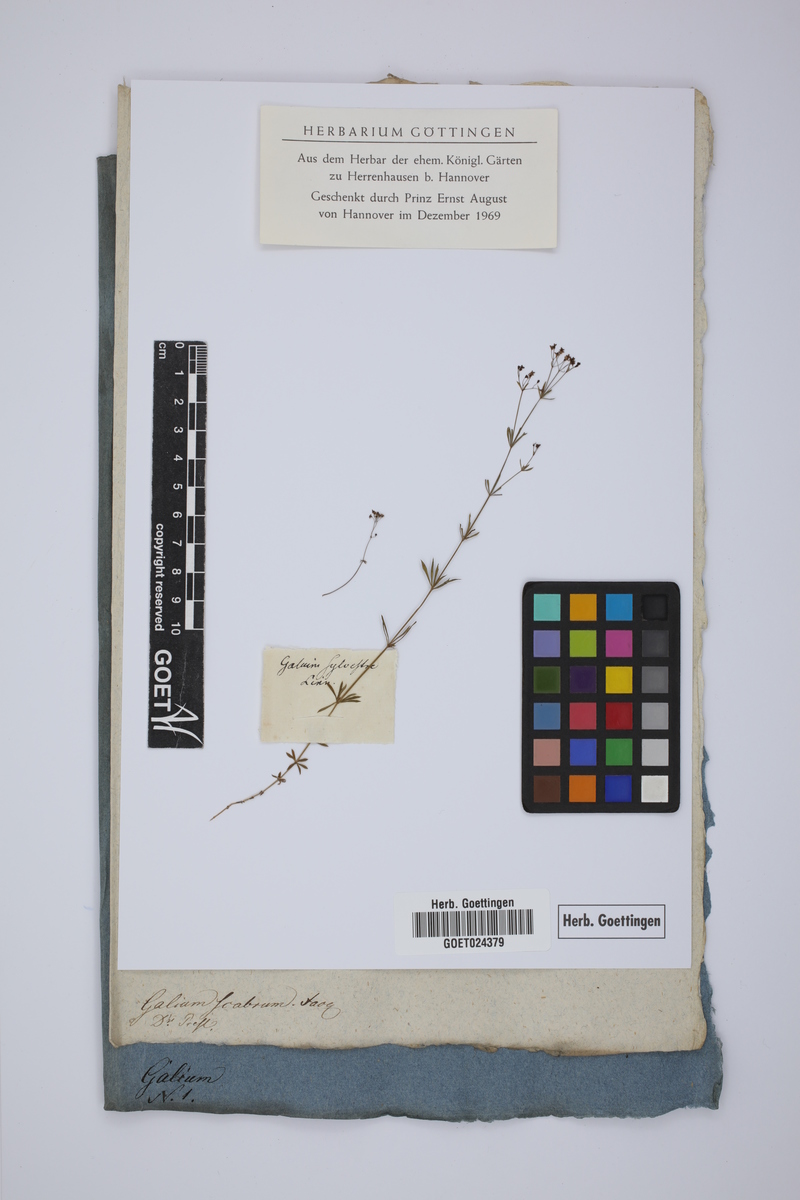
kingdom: Plantae
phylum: Tracheophyta
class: Magnoliopsida
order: Gentianales
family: Rubiaceae
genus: Galium
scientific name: Galium pumilum
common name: Slender bedstraw
